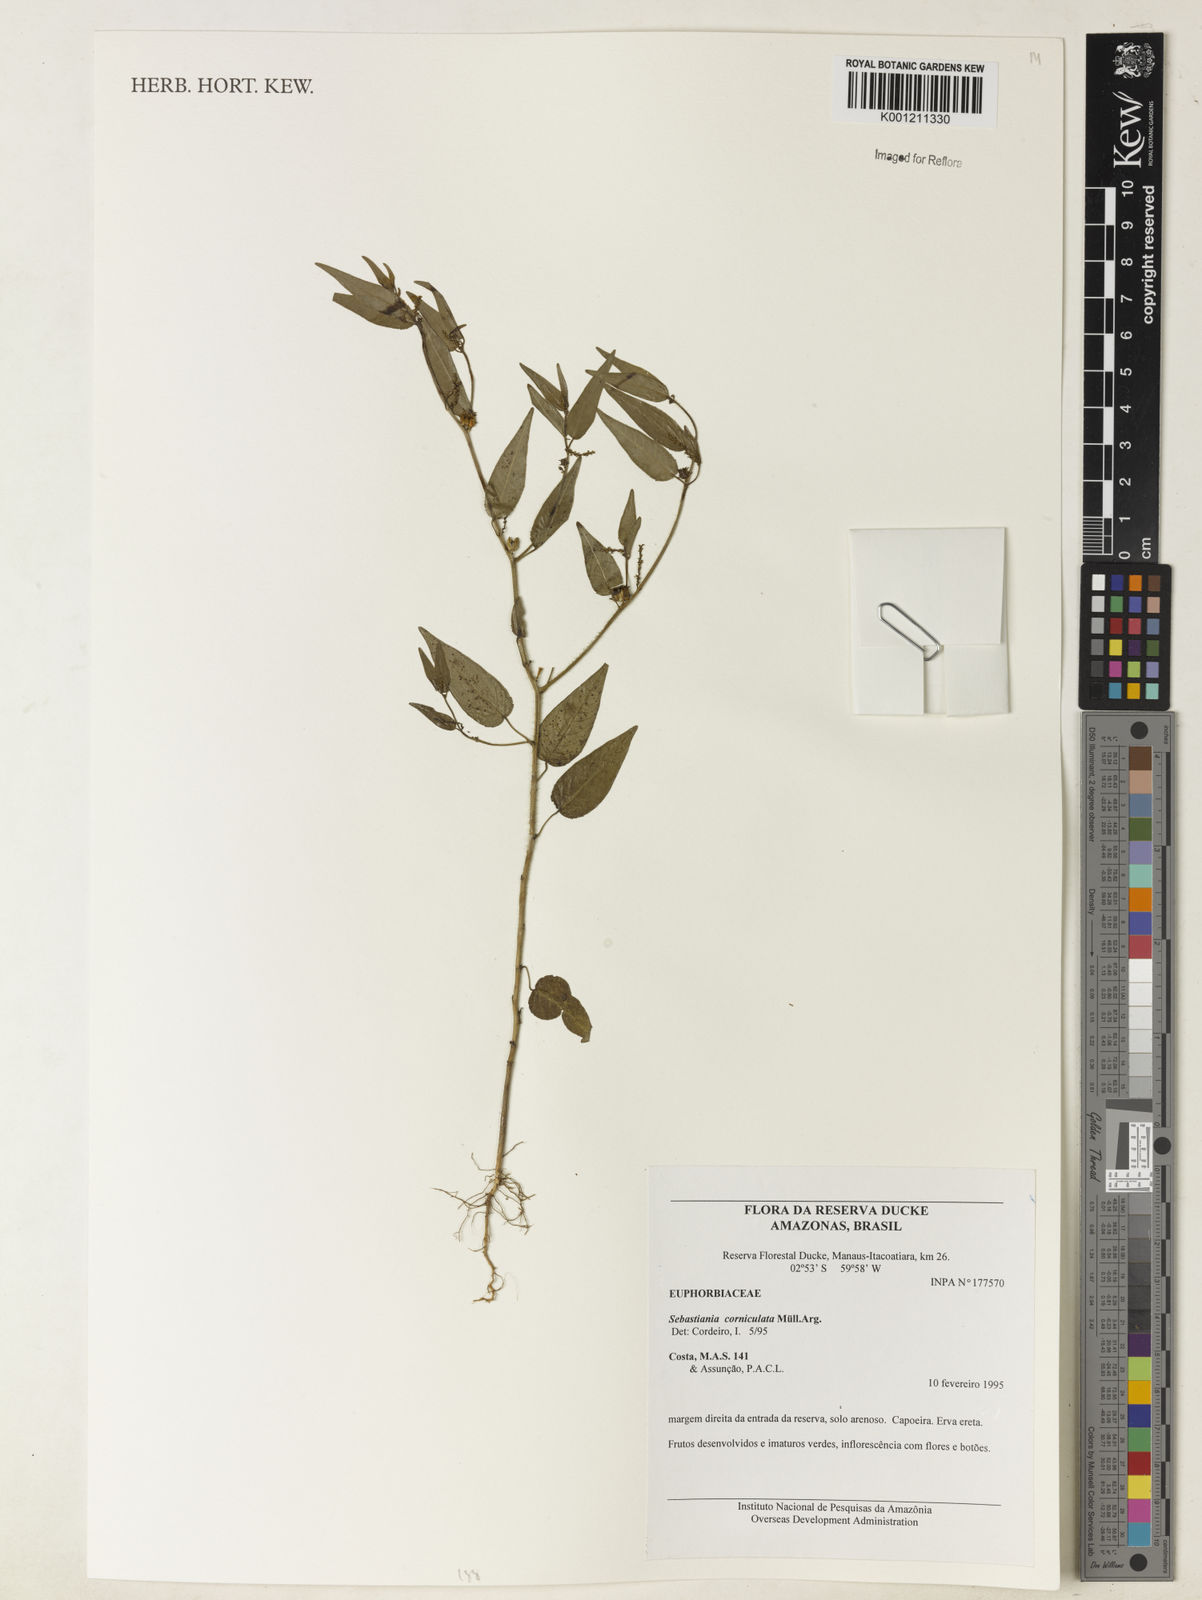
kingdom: Plantae
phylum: Tracheophyta
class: Magnoliopsida
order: Malpighiales
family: Euphorbiaceae
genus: Microstachys
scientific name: Microstachys corniculata
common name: Hato tejas
